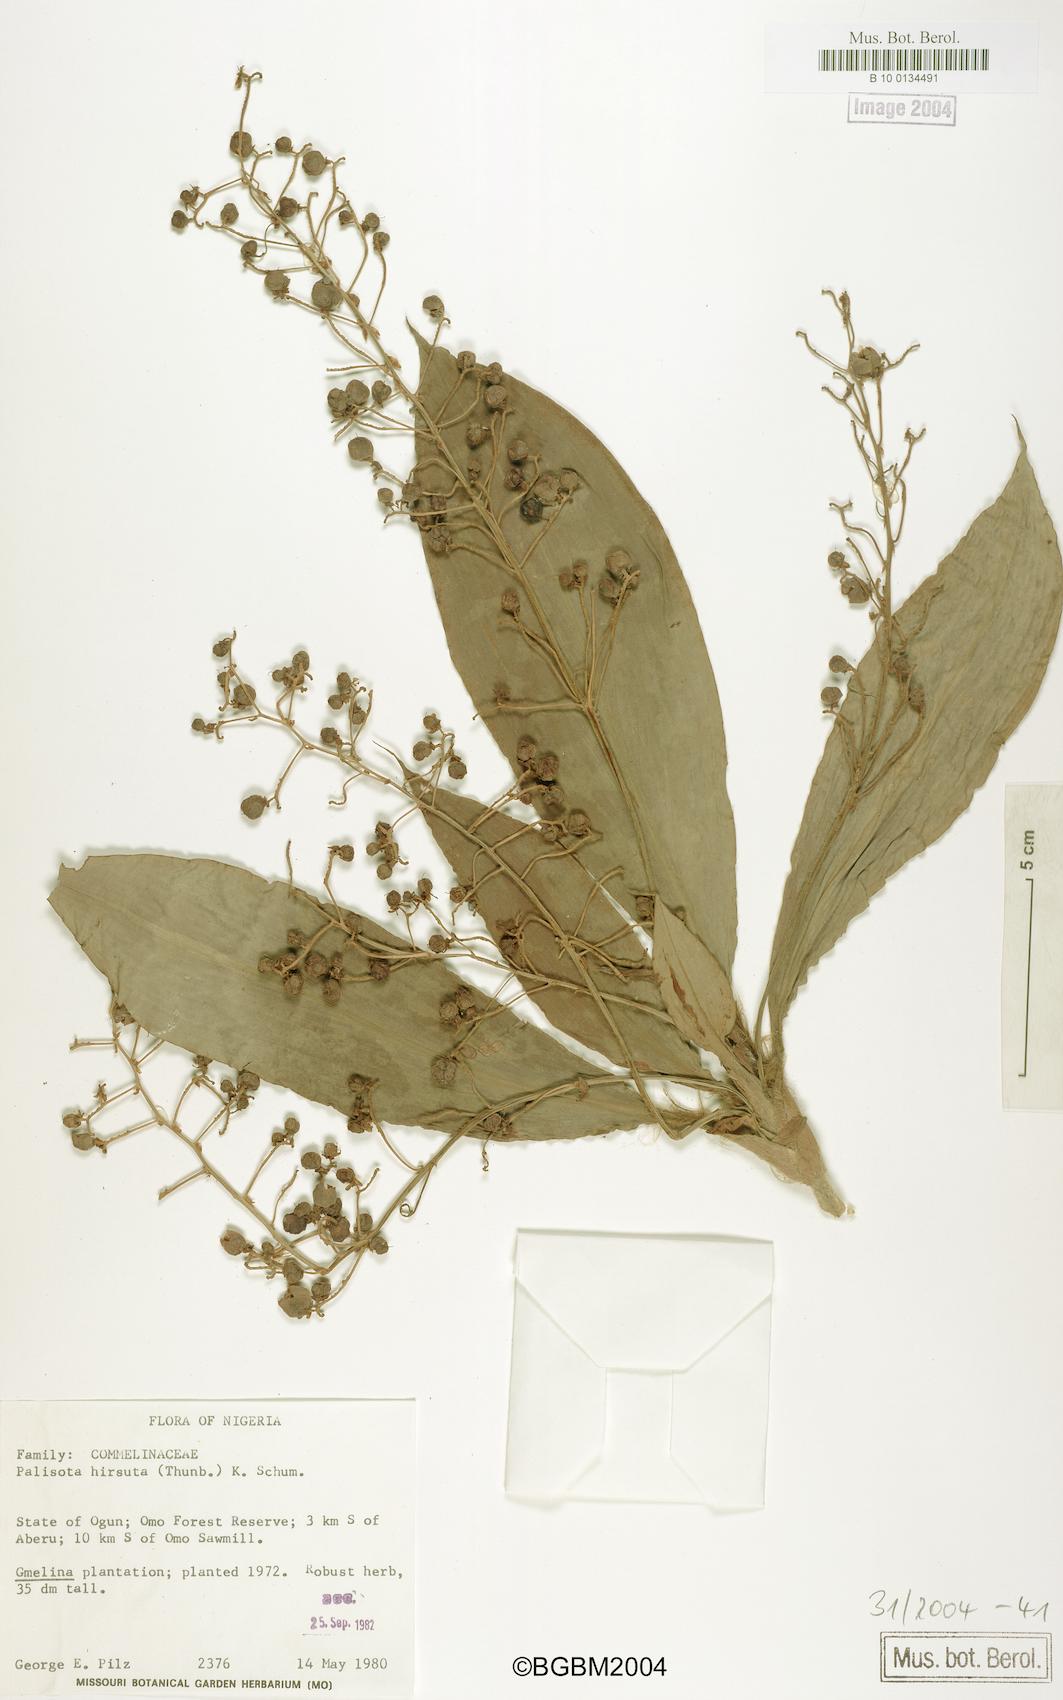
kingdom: Plantae
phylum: Tracheophyta
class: Liliopsida
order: Commelinales
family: Commelinaceae
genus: Palisota
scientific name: Palisota hirsuta
